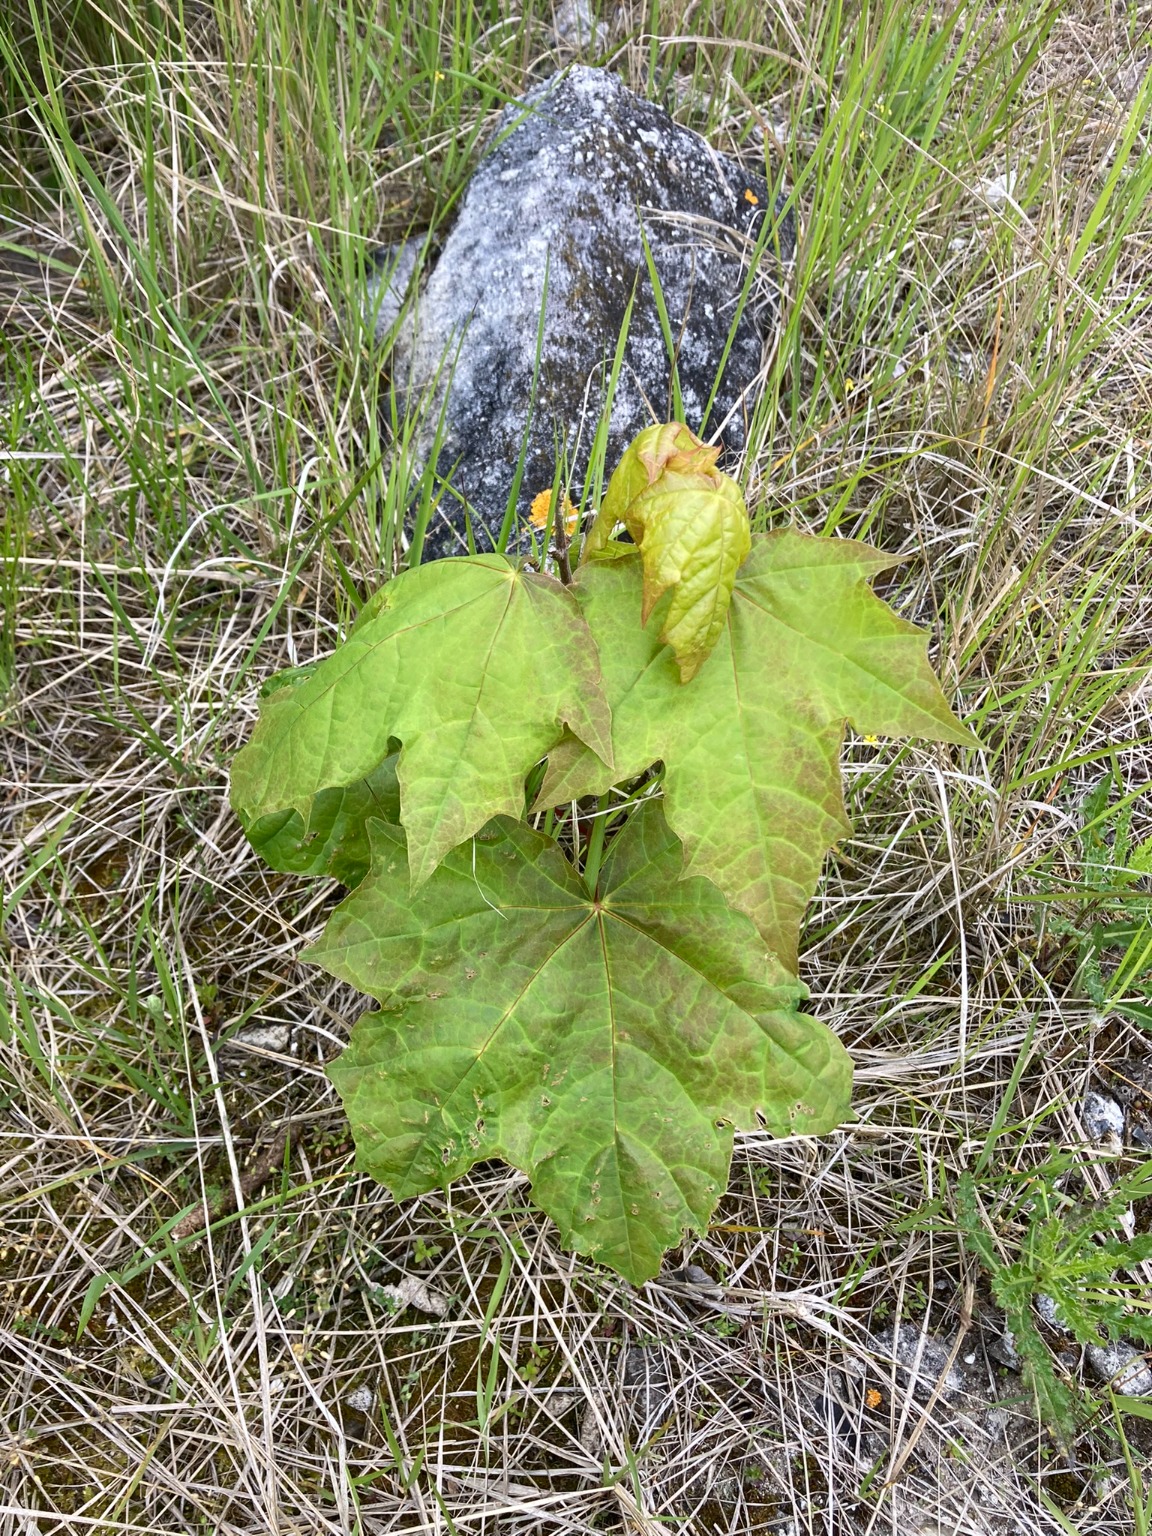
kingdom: Plantae
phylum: Tracheophyta
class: Magnoliopsida
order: Sapindales
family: Sapindaceae
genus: Acer
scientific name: Acer pseudoplatanus
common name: Ahorn
